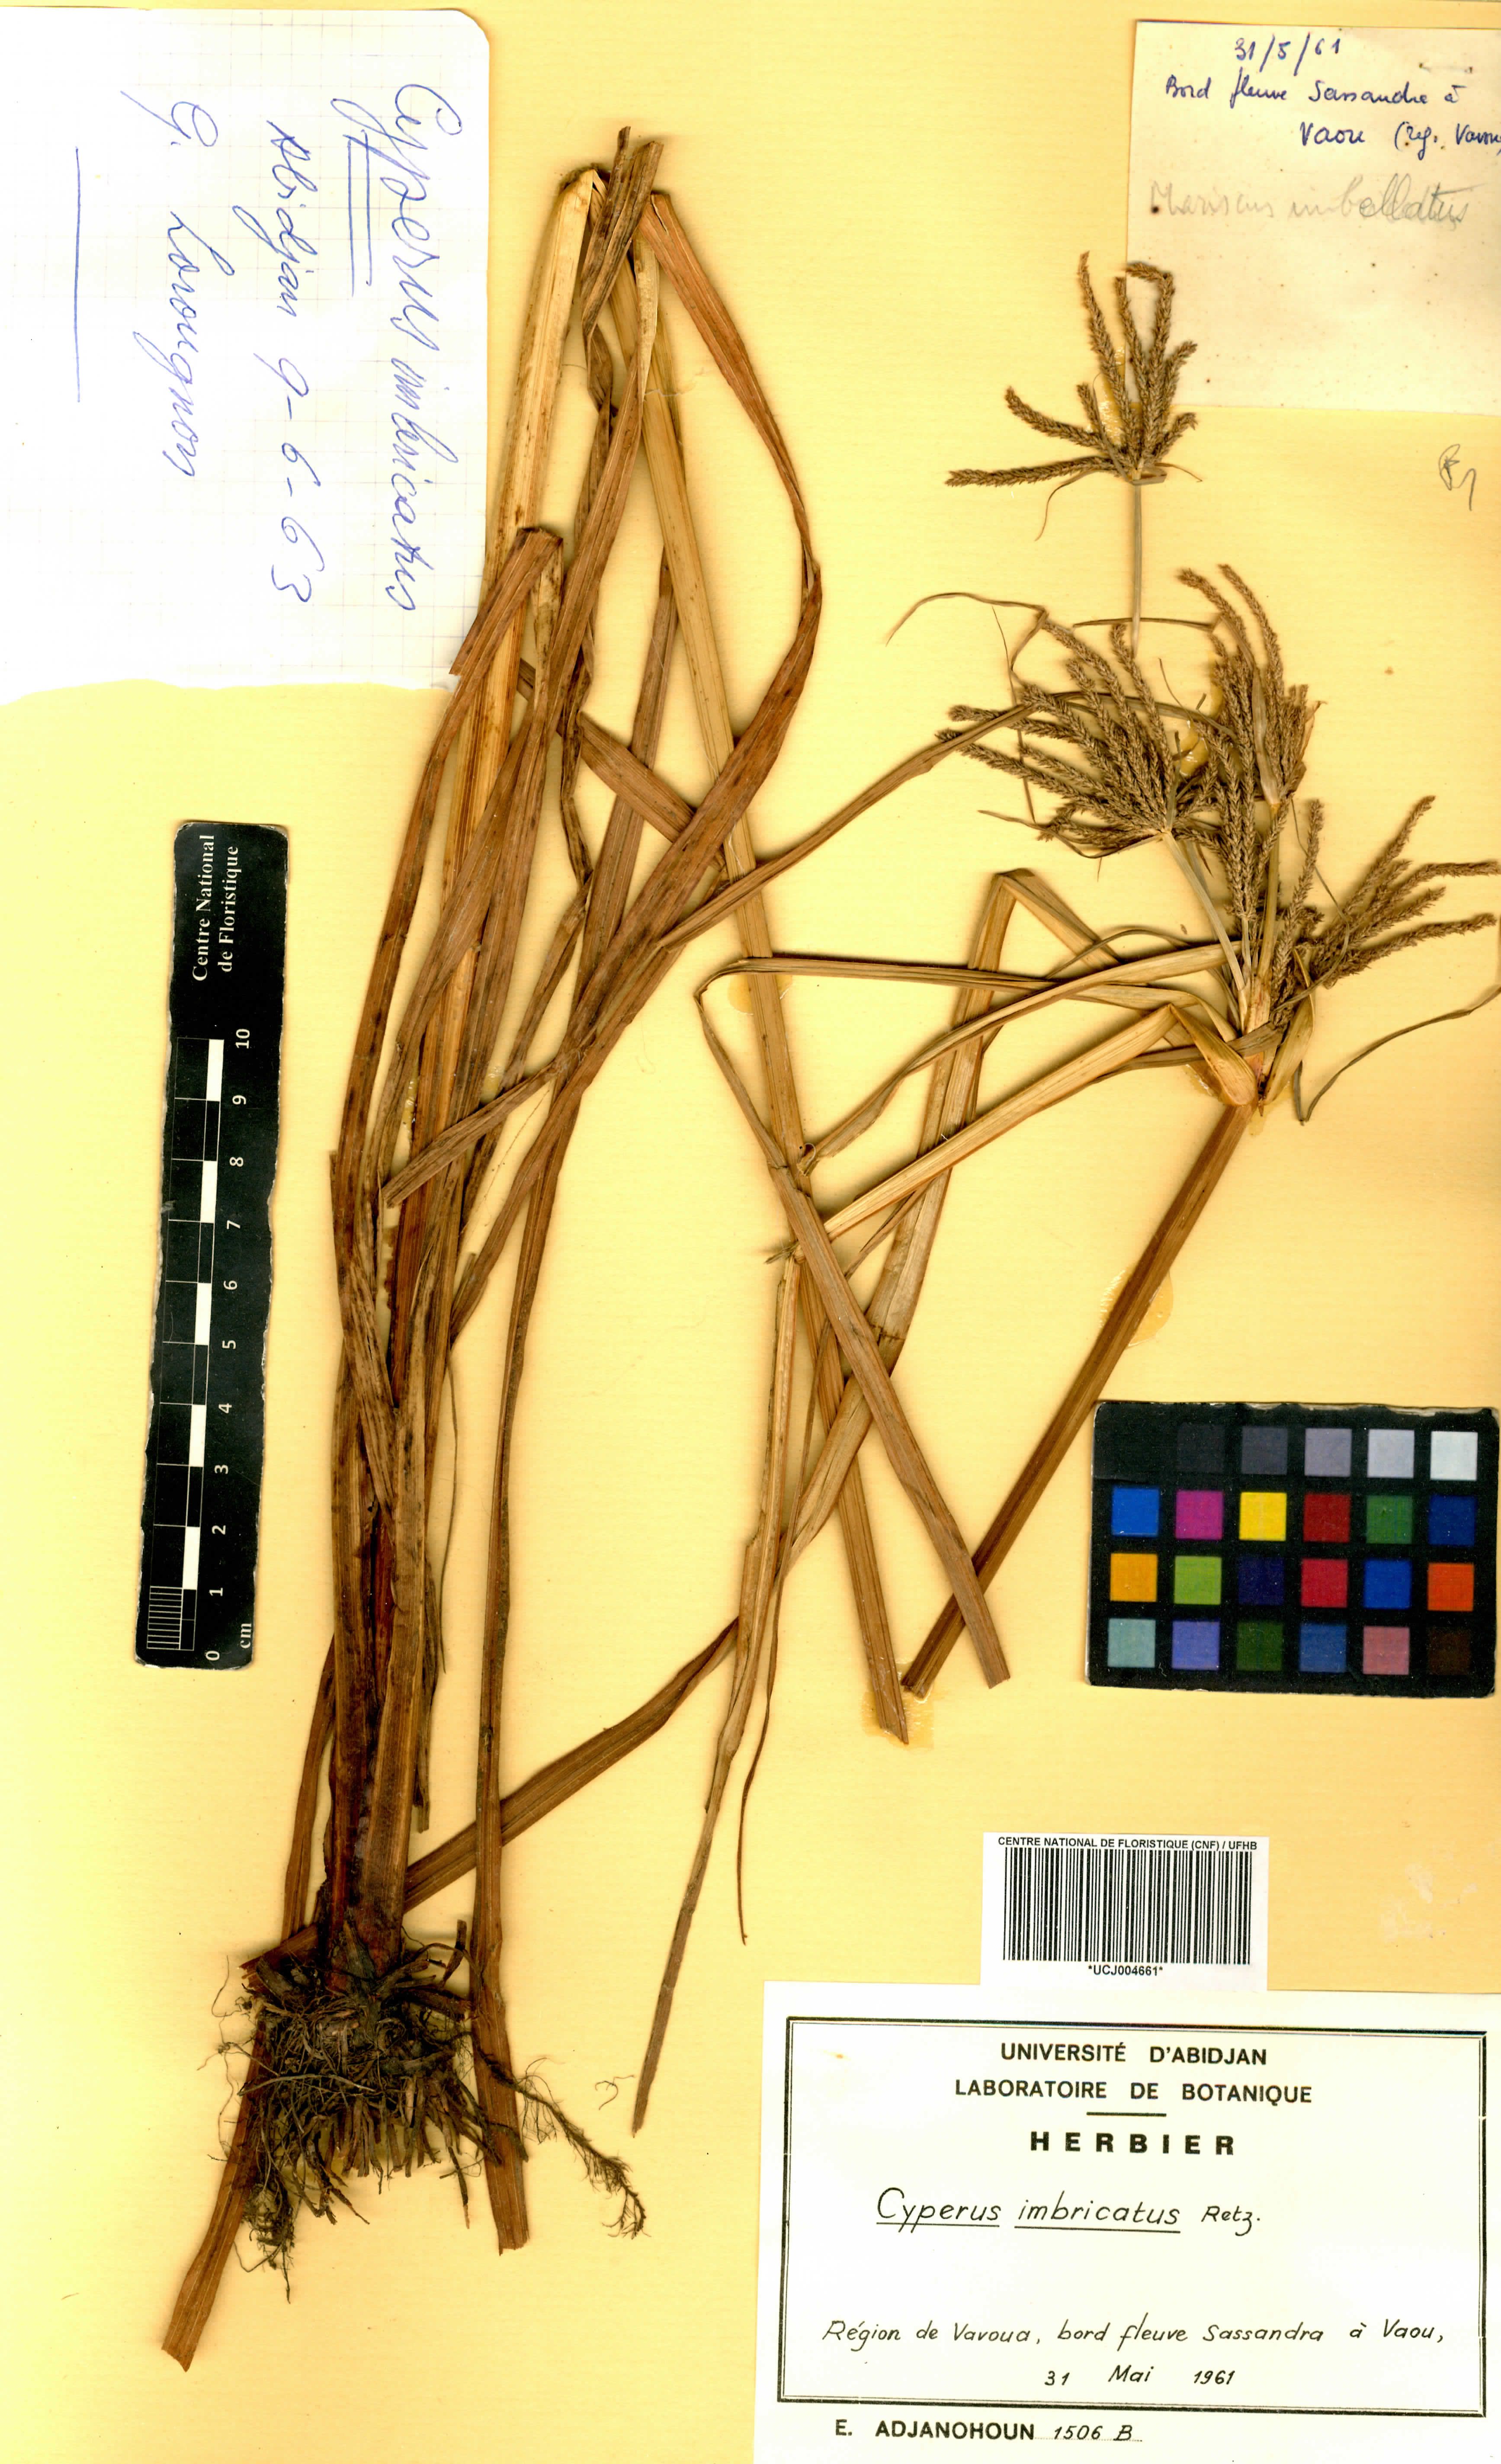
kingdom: Plantae
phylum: Tracheophyta
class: Liliopsida
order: Poales
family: Cyperaceae
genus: Cyperus
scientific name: Cyperus imbricatus
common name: Shingle flatsedge
